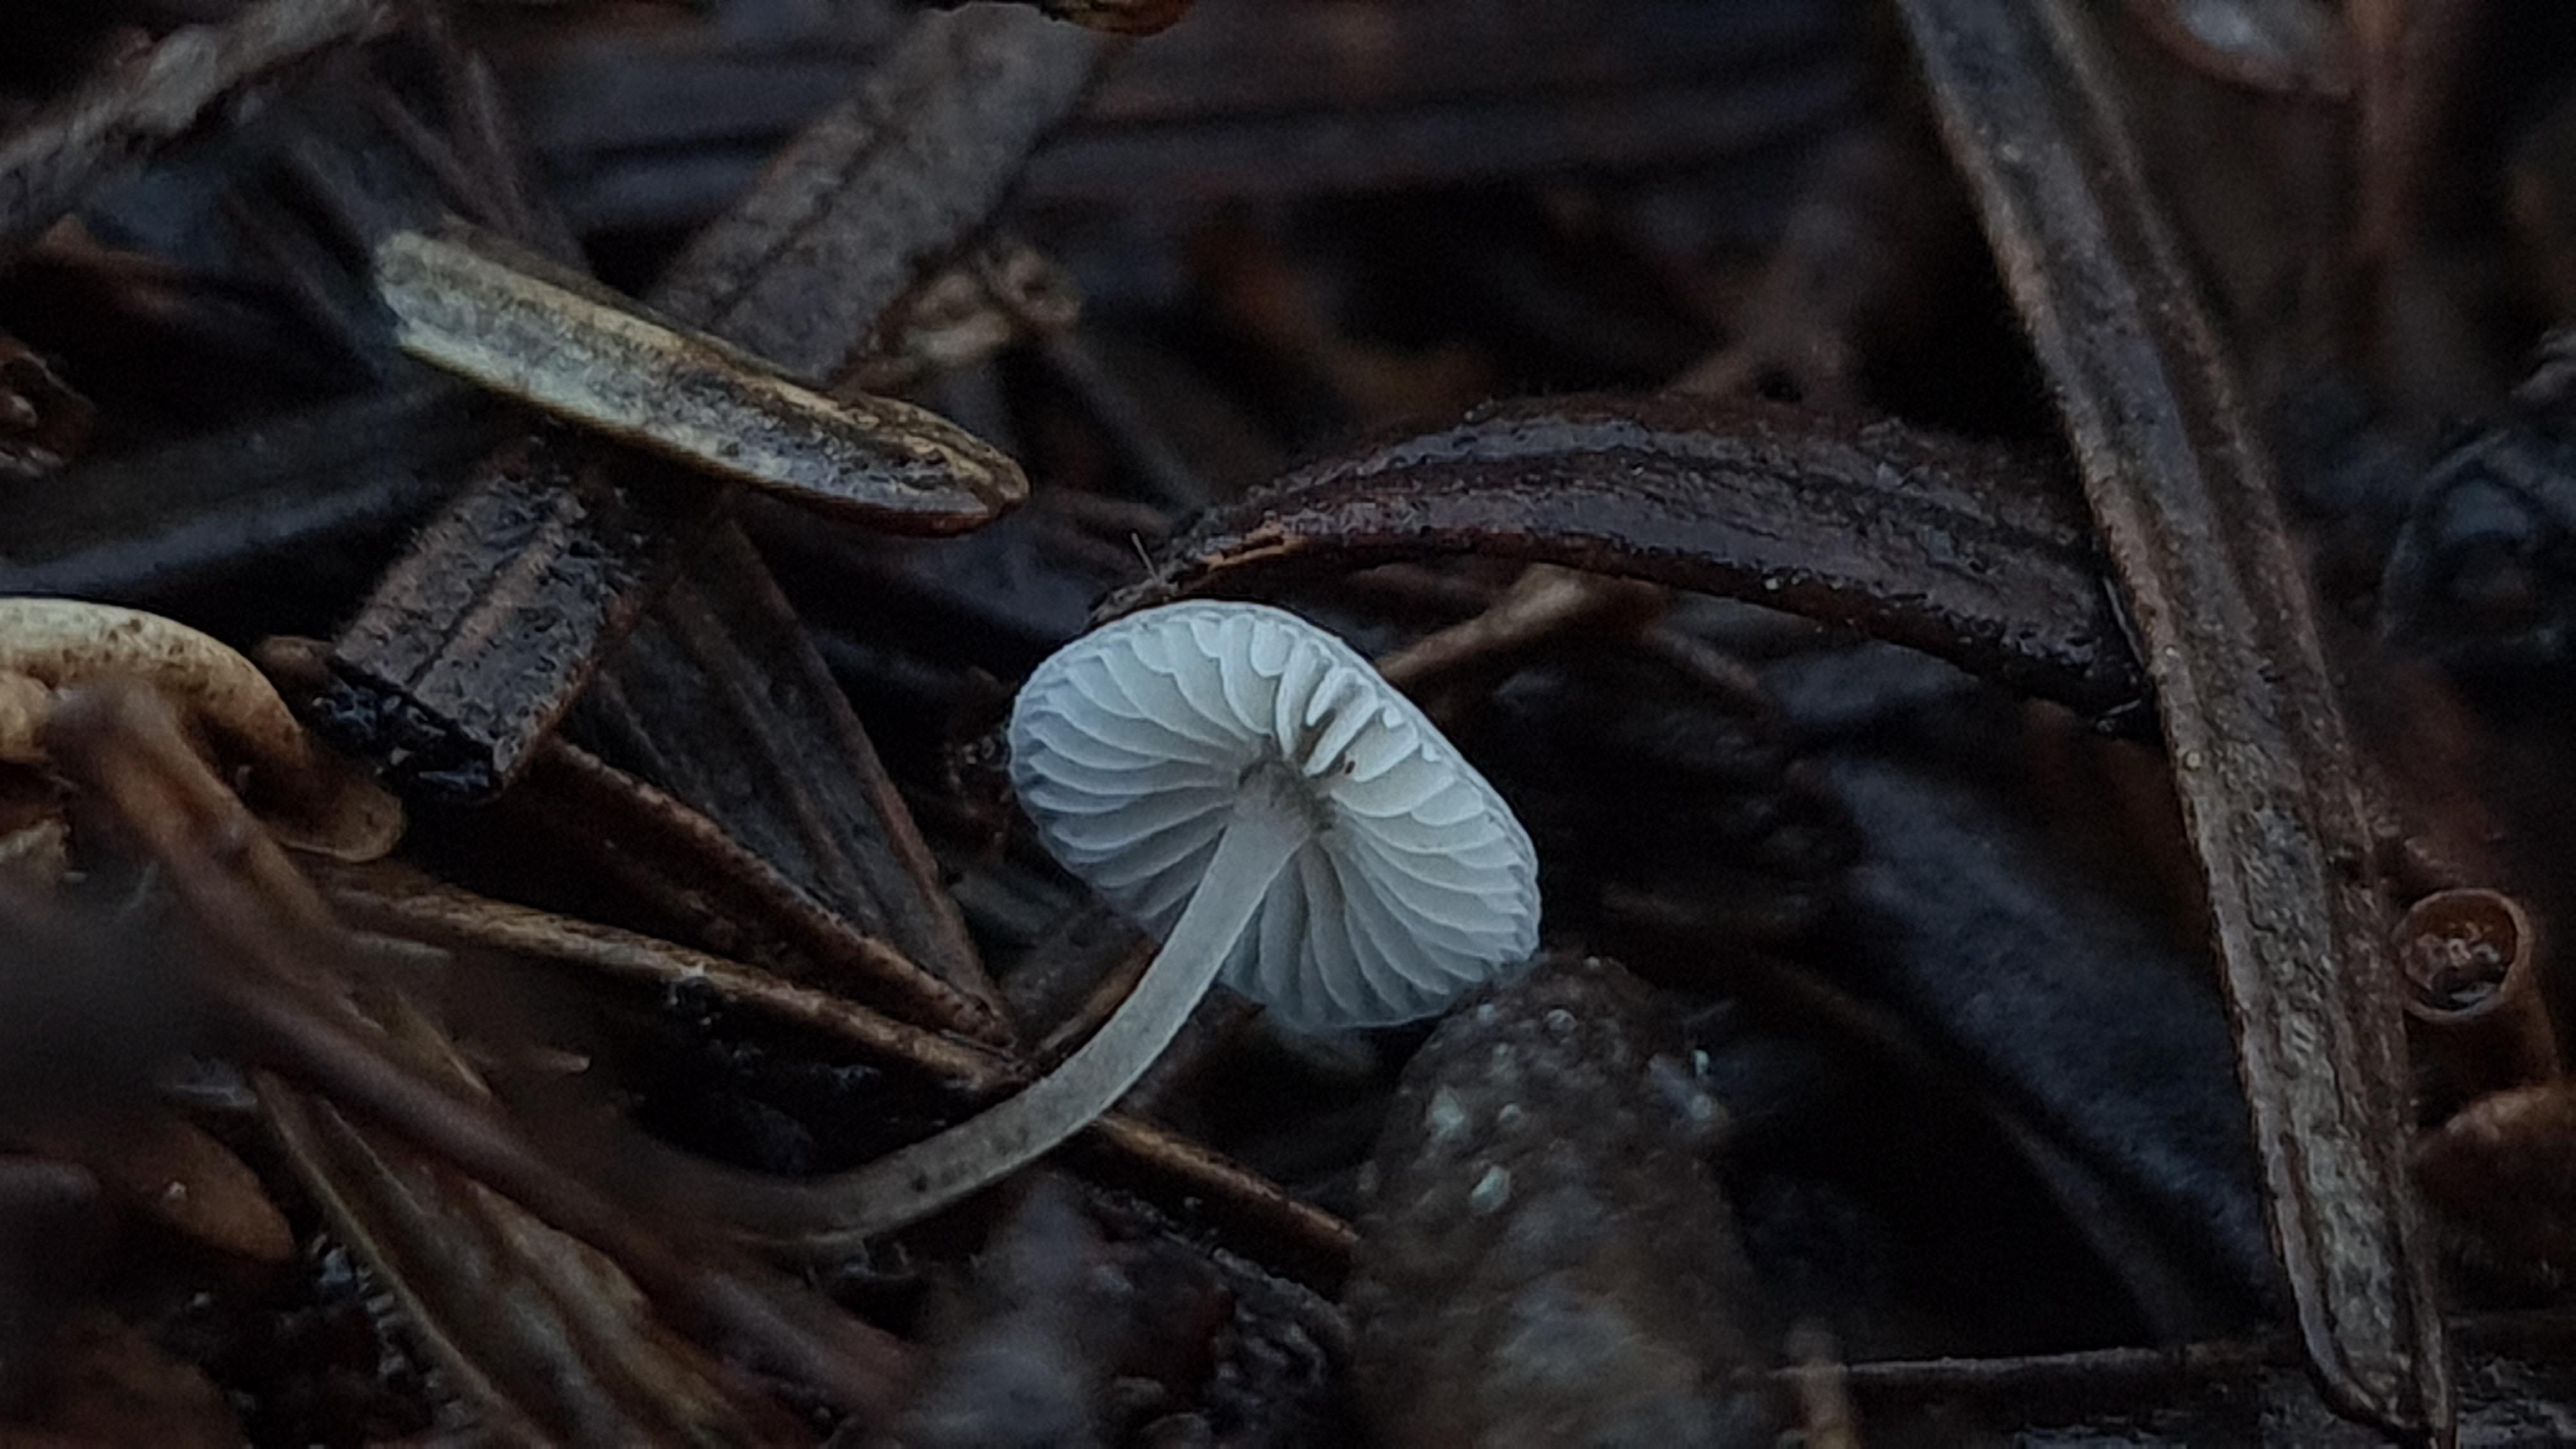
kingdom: Fungi
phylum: Basidiomycota
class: Agaricomycetes
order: Agaricales
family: Mycenaceae
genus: Mycena
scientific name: Mycena flavescens
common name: grågul huesvamp
